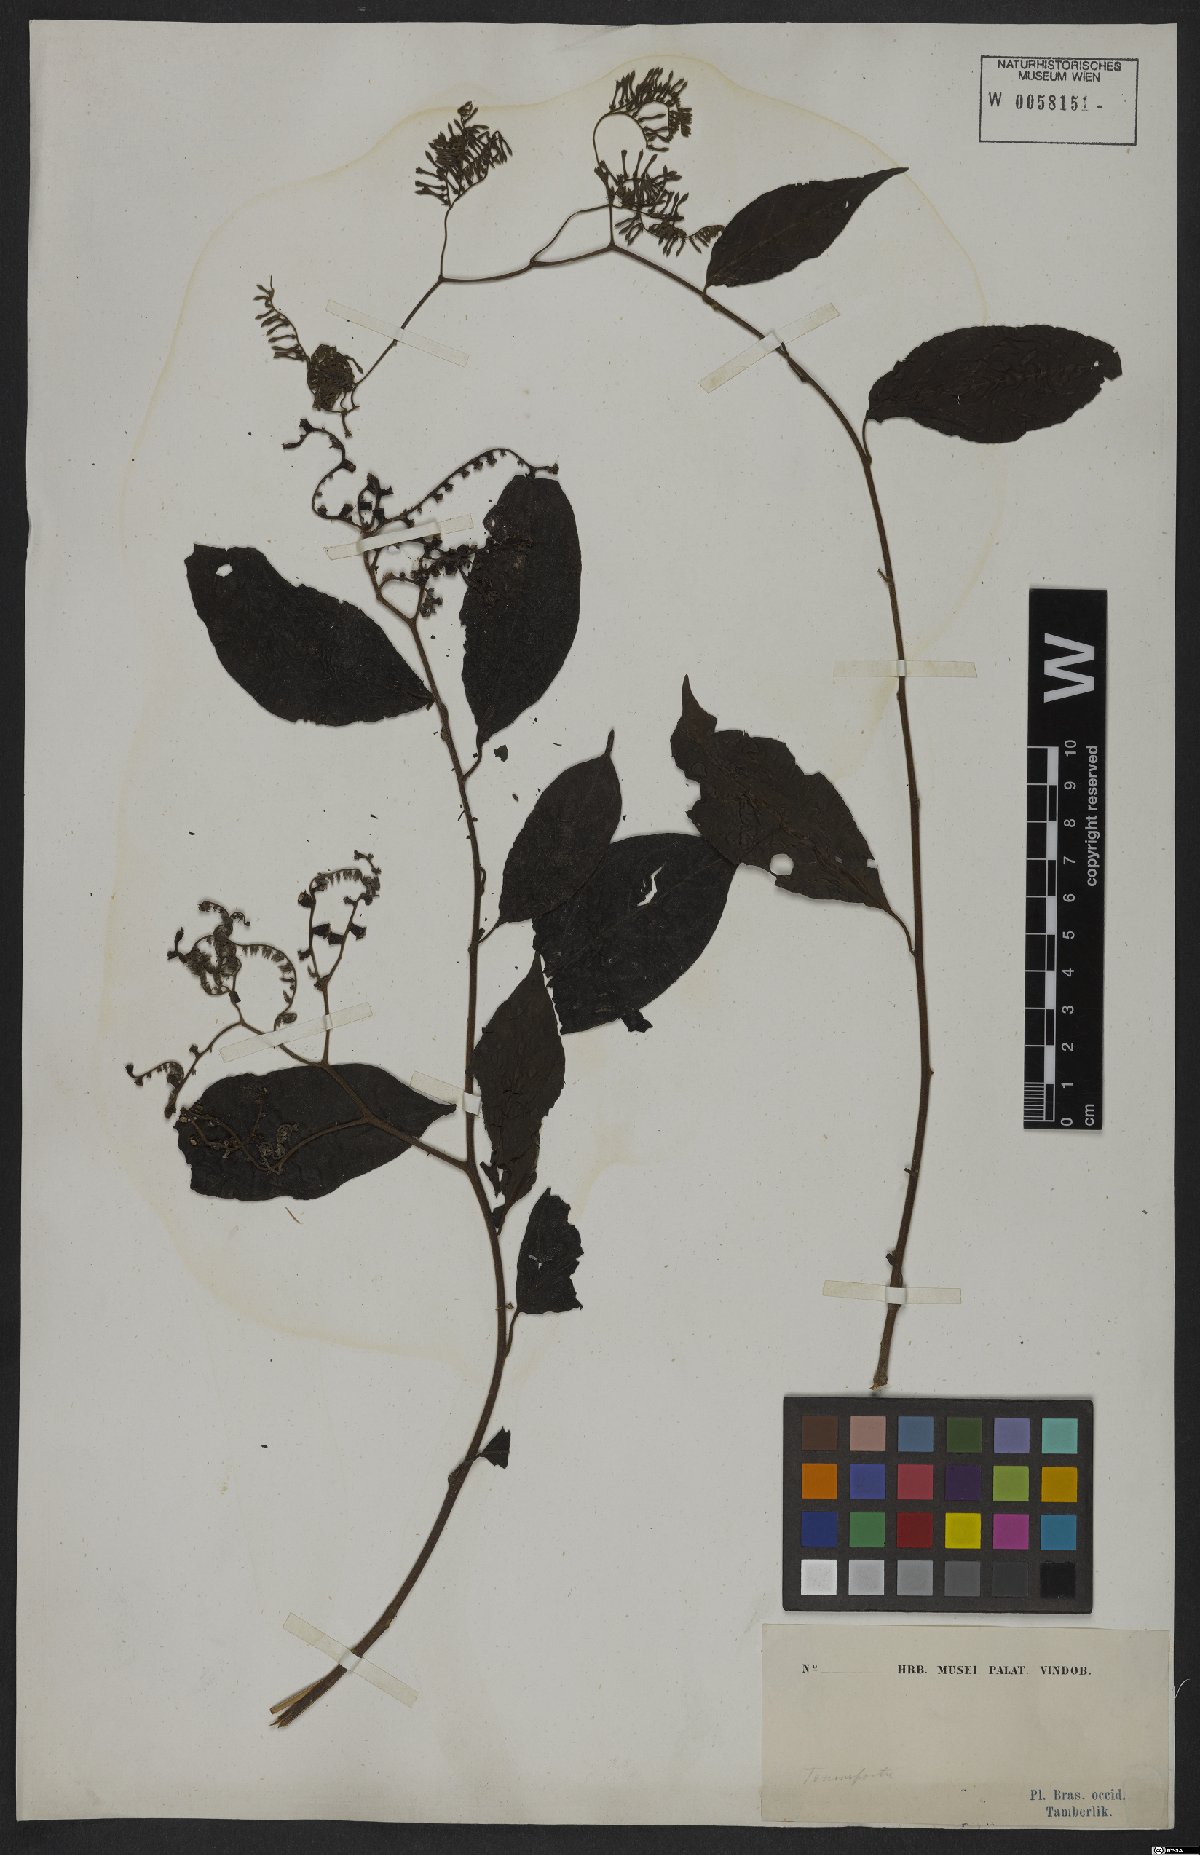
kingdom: Plantae
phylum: Tracheophyta
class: Magnoliopsida
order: Boraginales
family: Heliotropiaceae
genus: Myriopus
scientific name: Myriopus paniculatus
